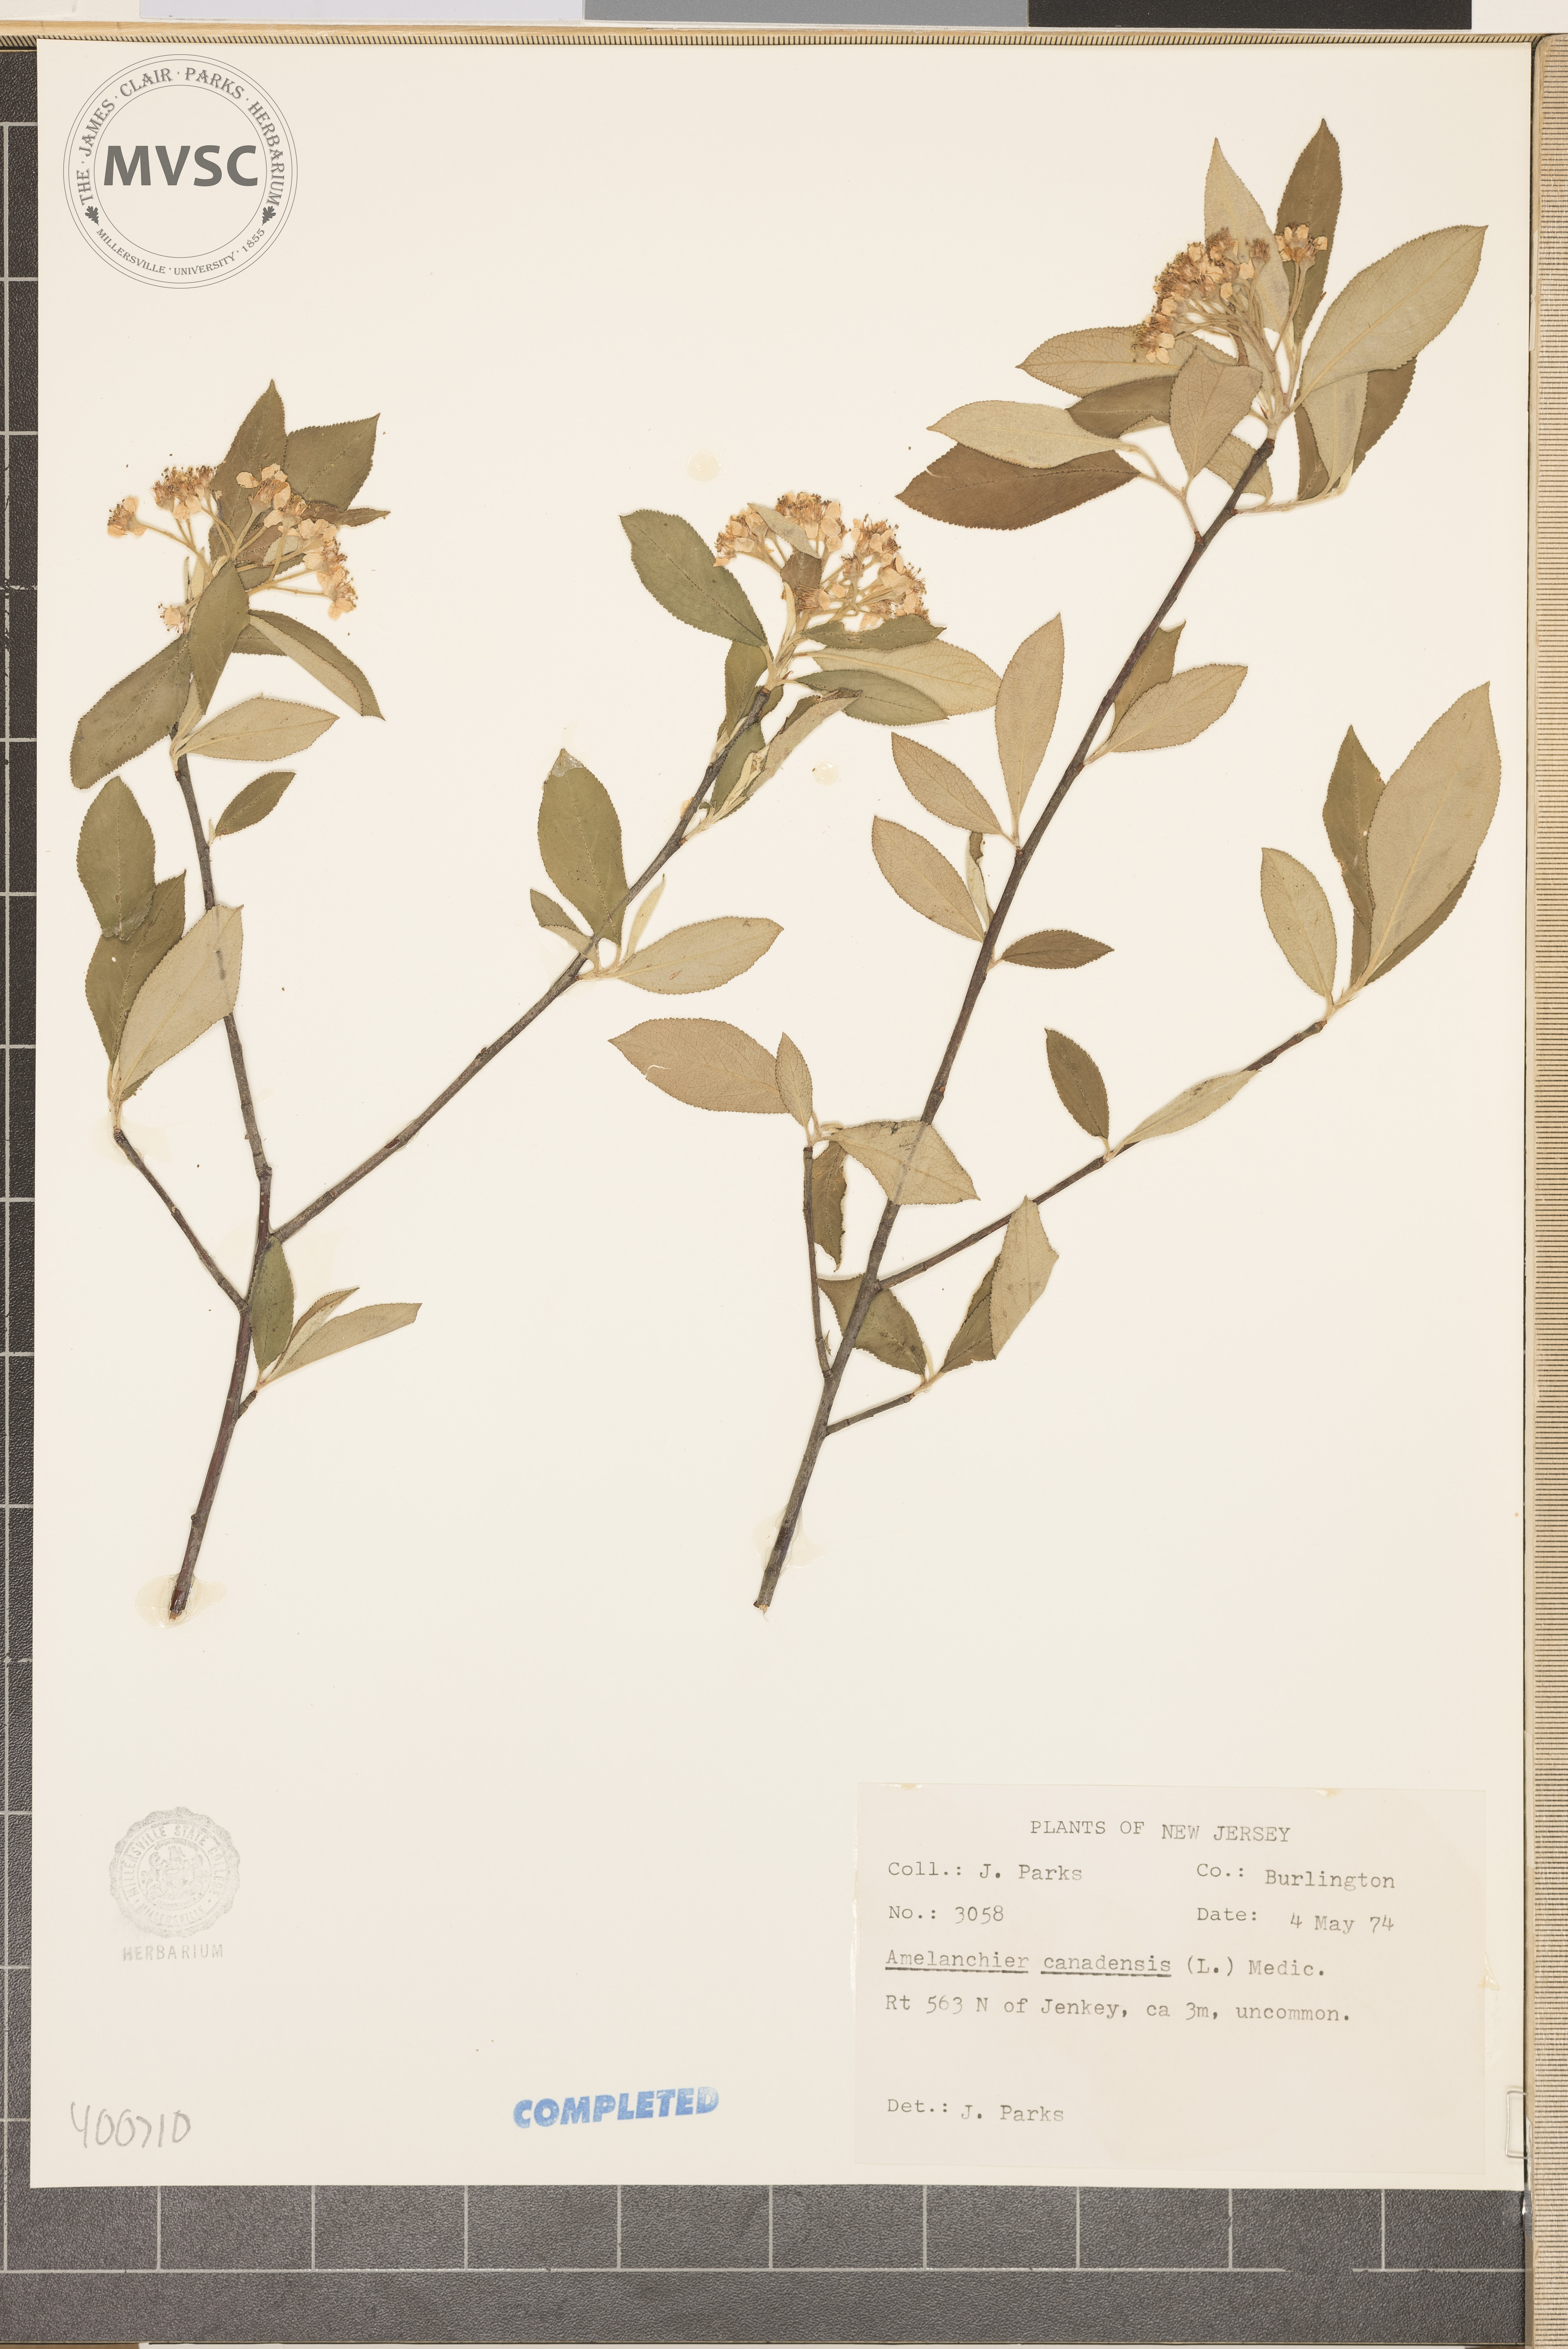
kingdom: Plantae
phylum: Tracheophyta
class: Magnoliopsida
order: Rosales
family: Rosaceae
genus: Amelanchier
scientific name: Amelanchier canadensis
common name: serviceberry
